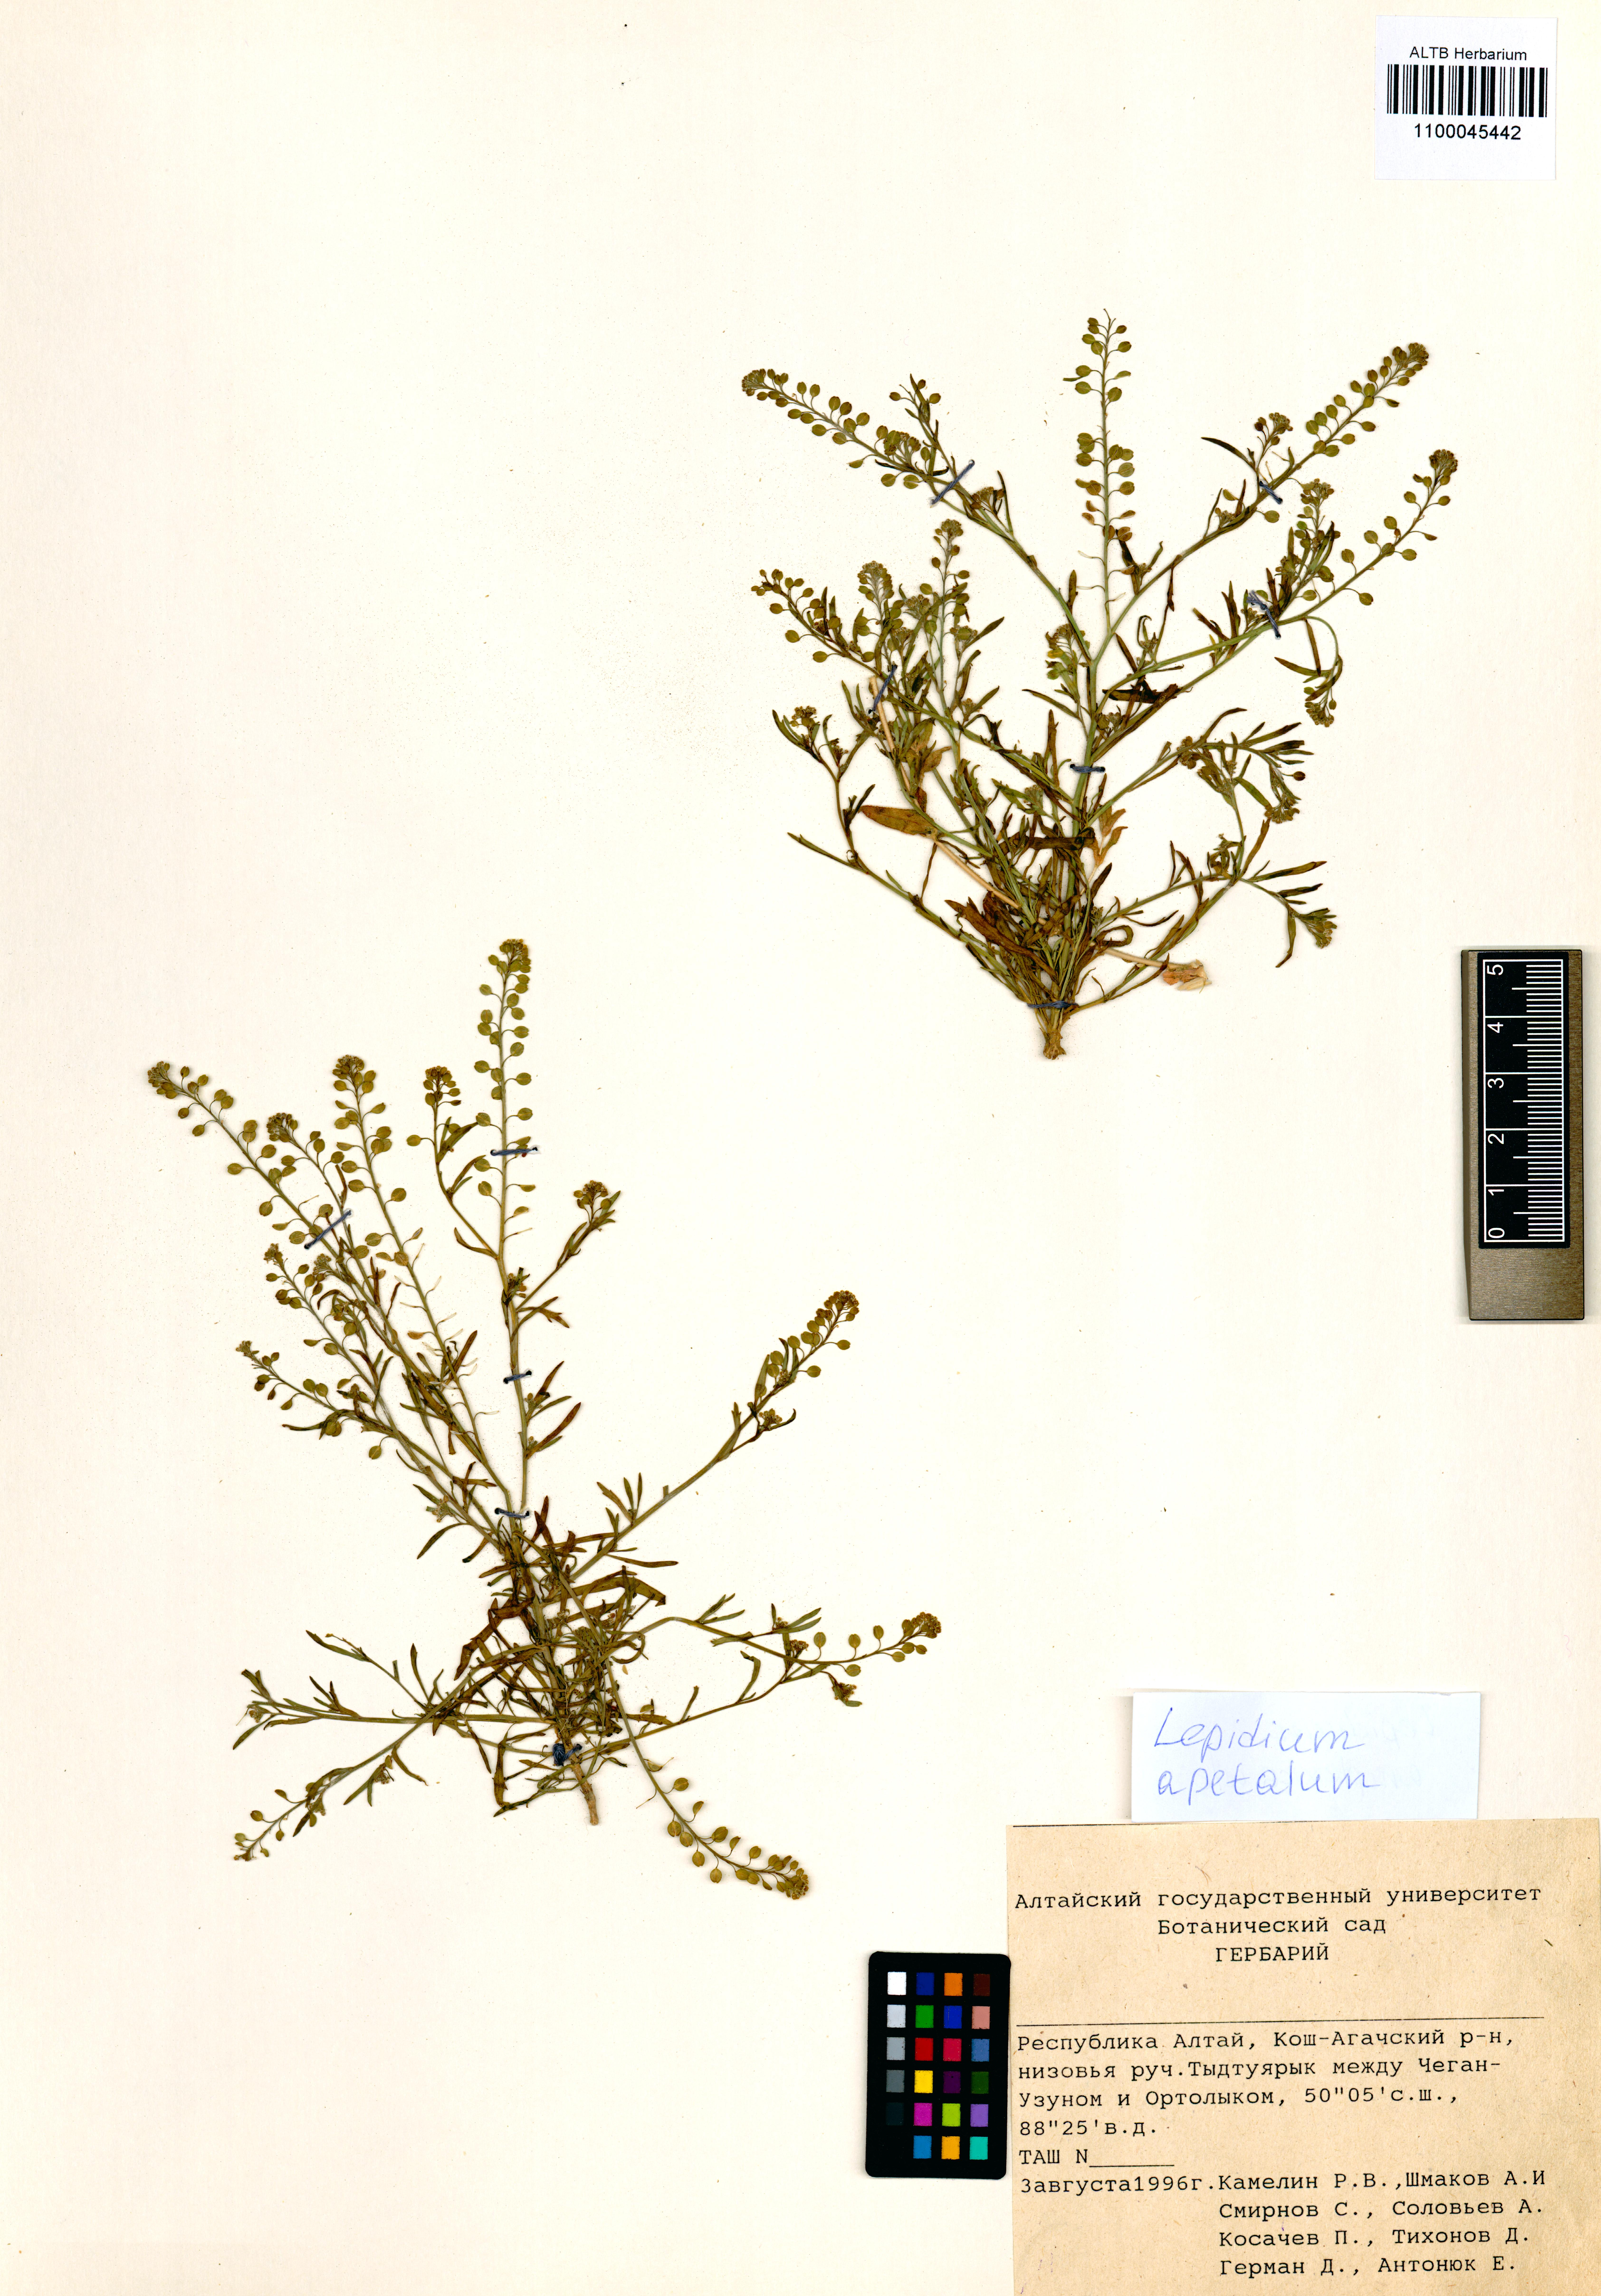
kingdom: Plantae
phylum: Tracheophyta
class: Magnoliopsida
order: Brassicales
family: Brassicaceae
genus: Lepidium
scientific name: Lepidium apetalum
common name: Pepperweed
